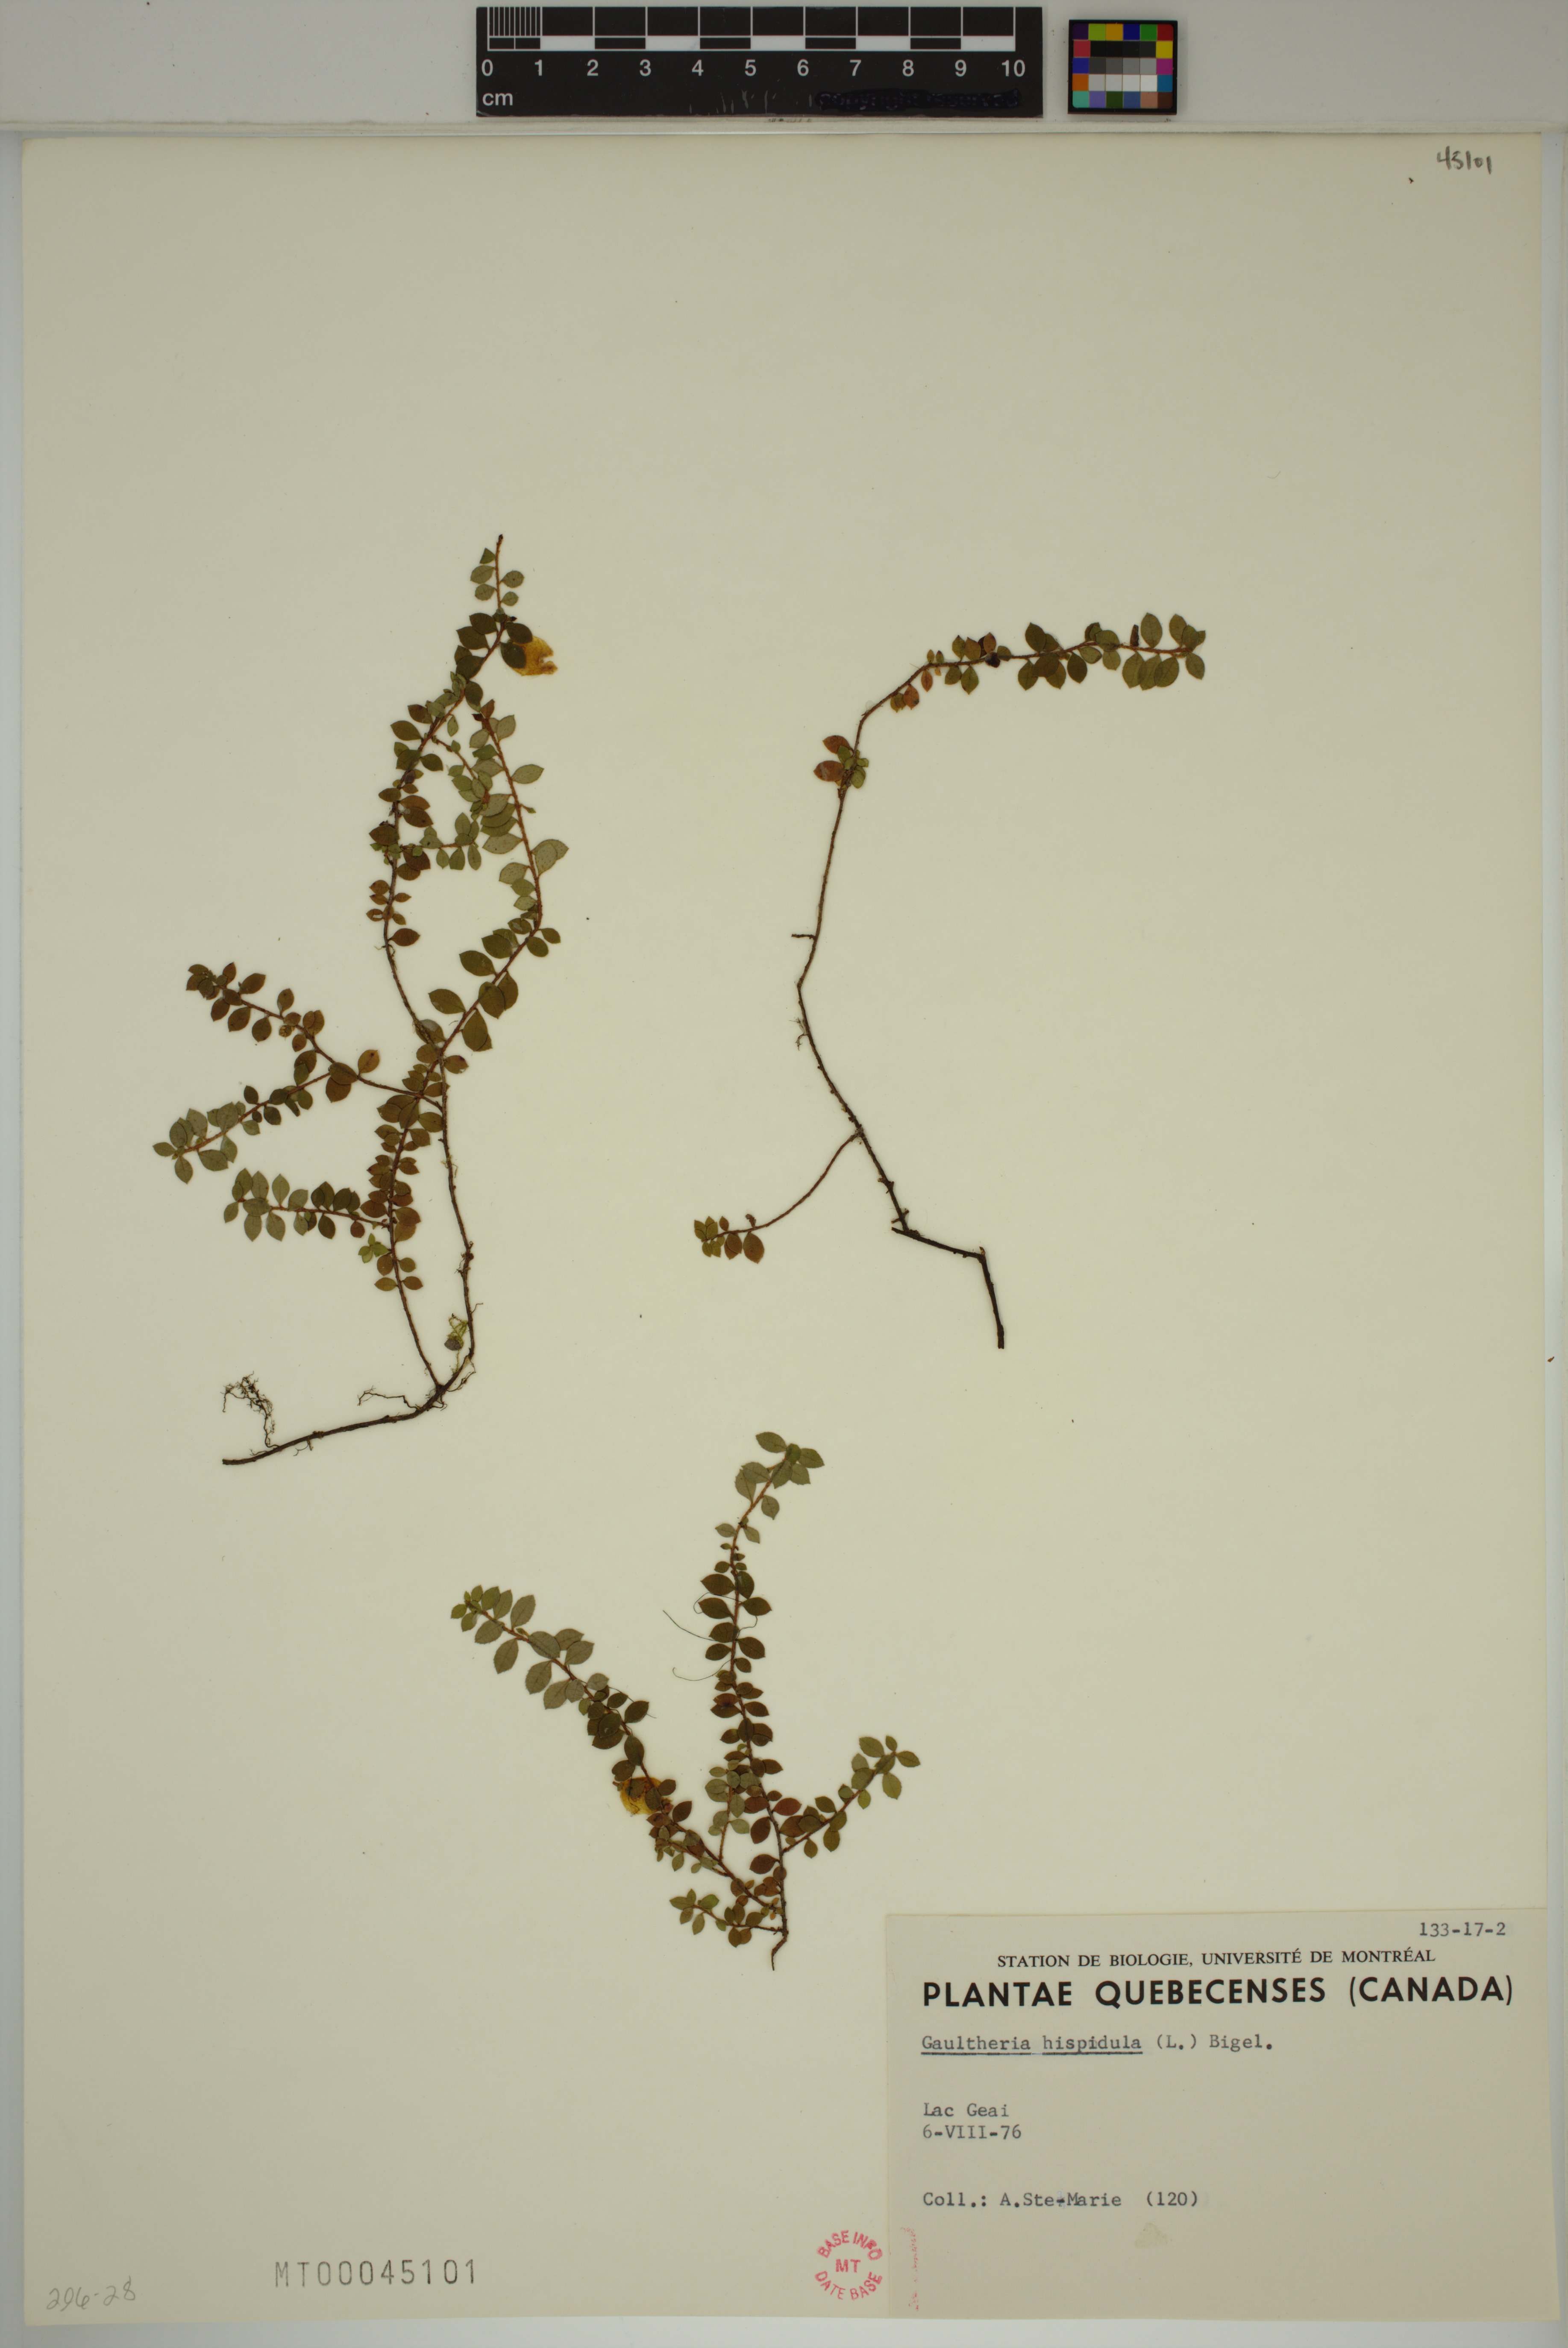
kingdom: Plantae
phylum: Tracheophyta
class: Magnoliopsida
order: Ericales
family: Ericaceae
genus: Gaultheria
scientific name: Gaultheria hispidula
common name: Cancer wintergreen
